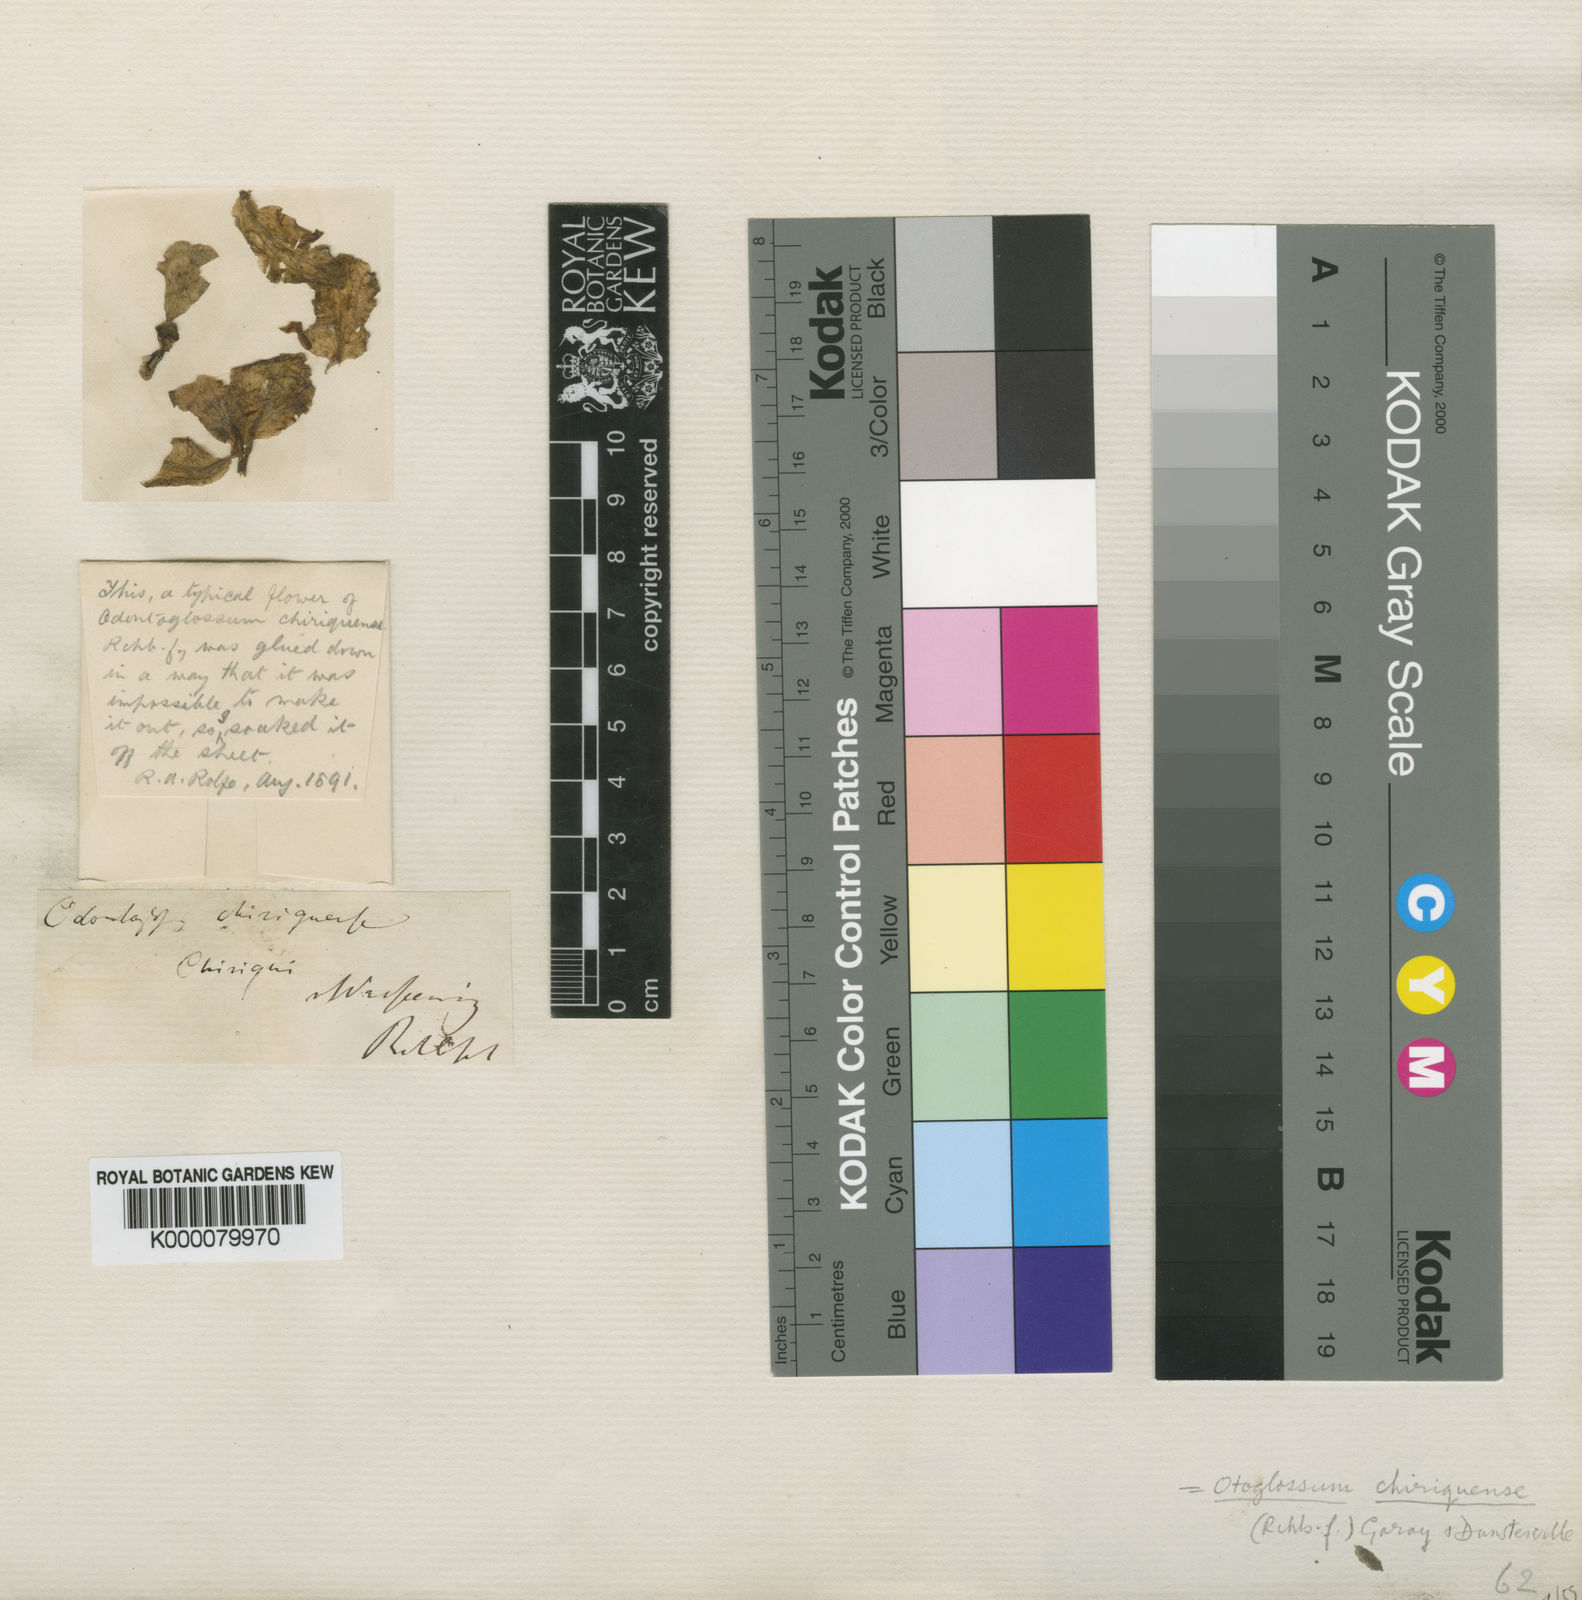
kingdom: Plantae
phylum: Tracheophyta
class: Liliopsida
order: Asparagales
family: Orchidaceae
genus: Otoglossum
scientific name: Otoglossum chiriquense
